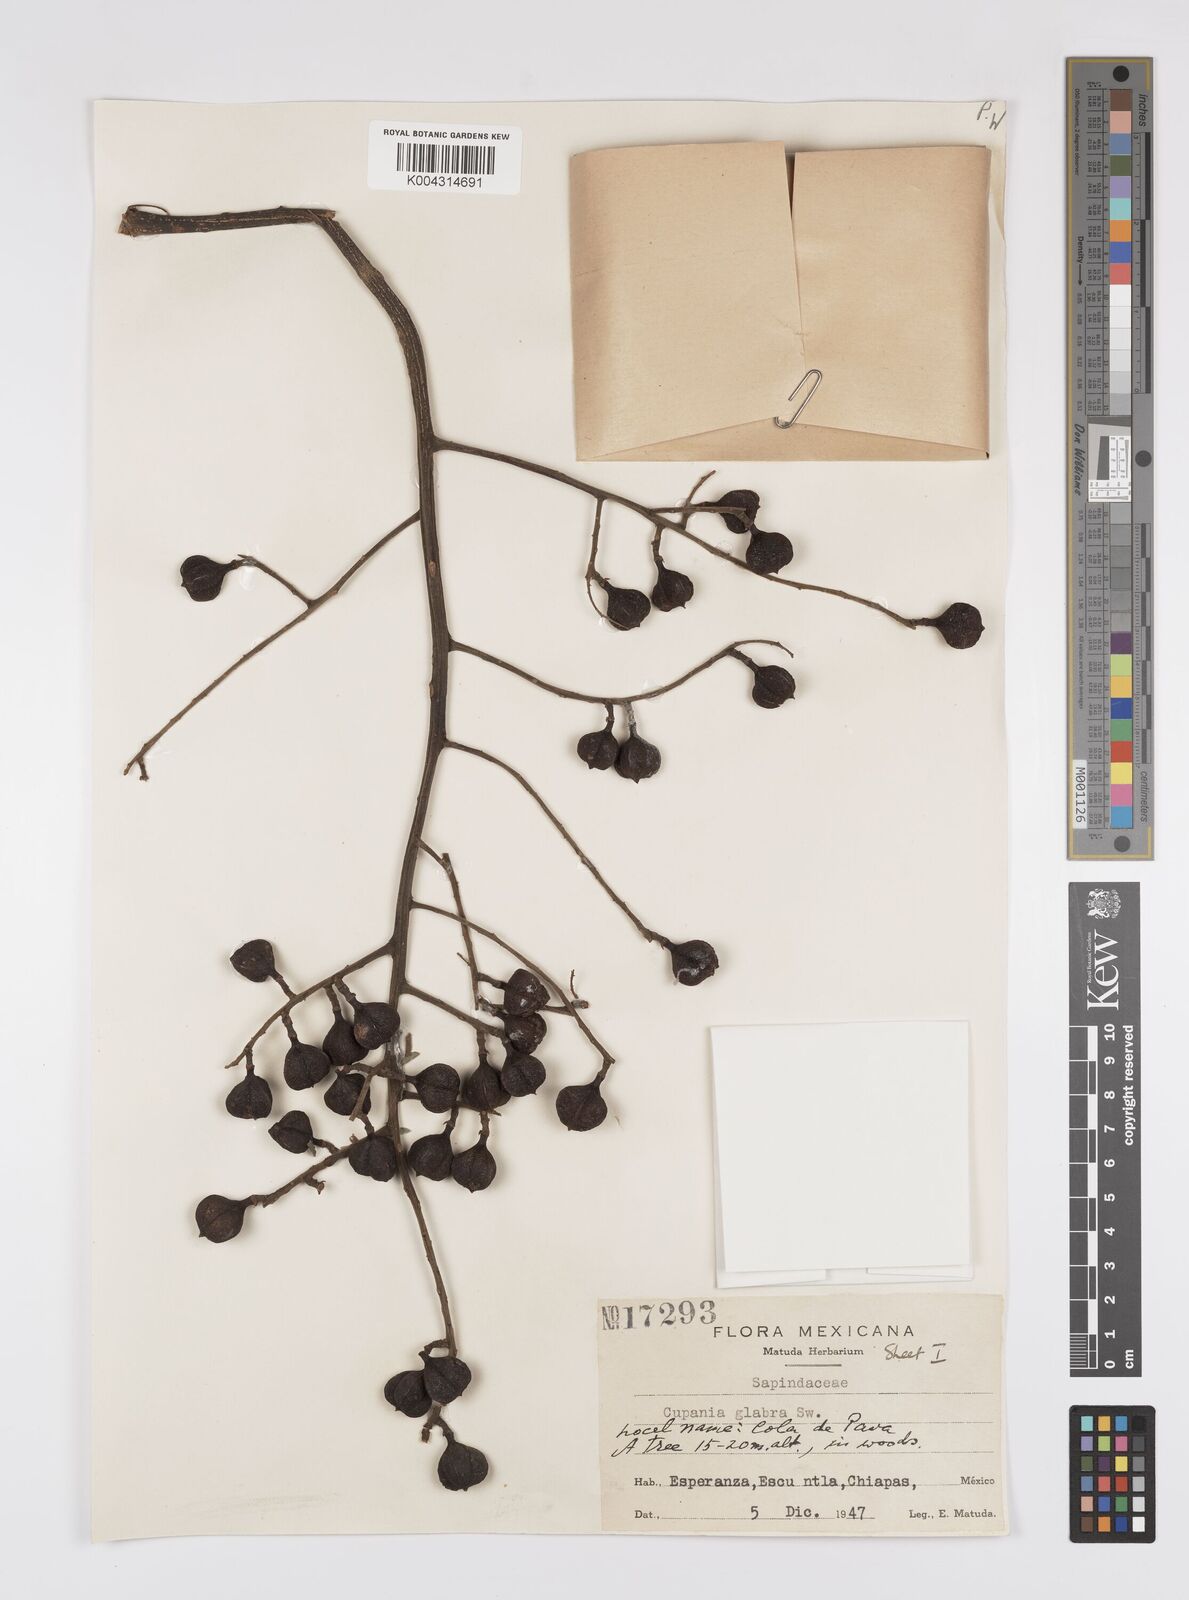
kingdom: Plantae
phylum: Tracheophyta
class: Magnoliopsida
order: Sapindales
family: Sapindaceae
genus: Cupania
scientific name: Cupania
